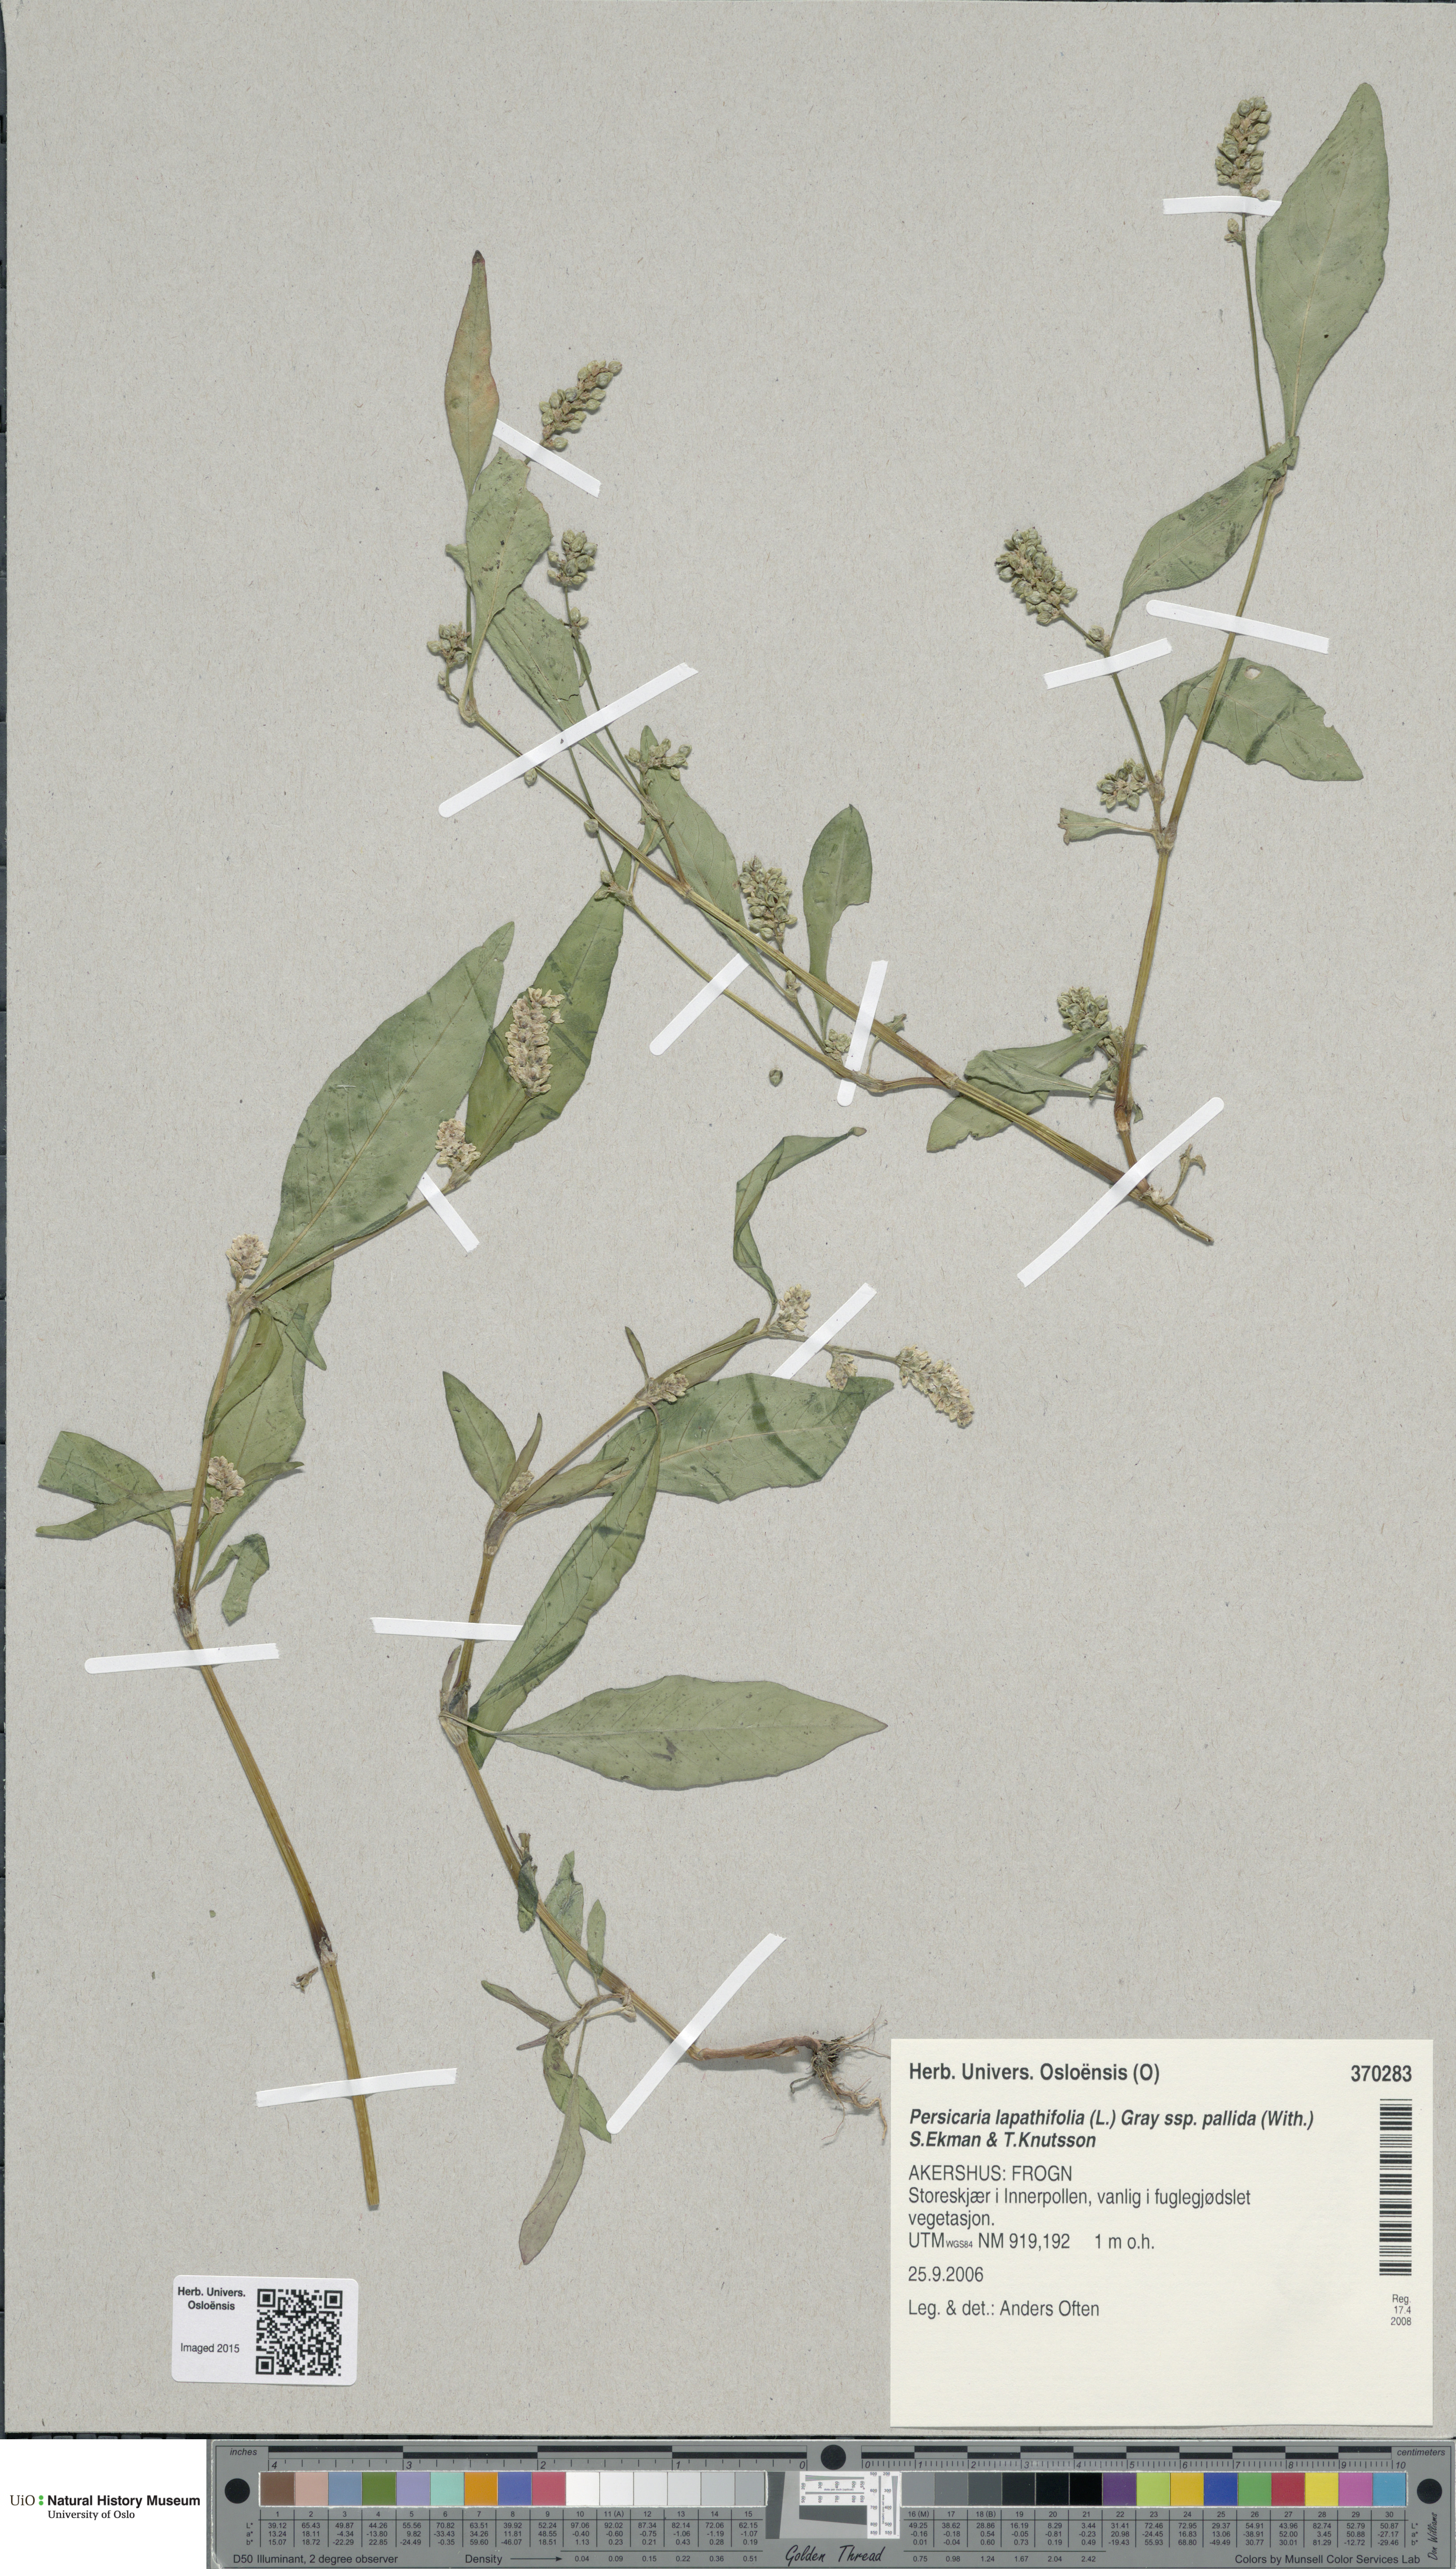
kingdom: Plantae
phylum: Tracheophyta
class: Magnoliopsida
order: Caryophyllales
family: Polygonaceae
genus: Persicaria
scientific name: Persicaria lapathifolia
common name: Curlytop knotweed
